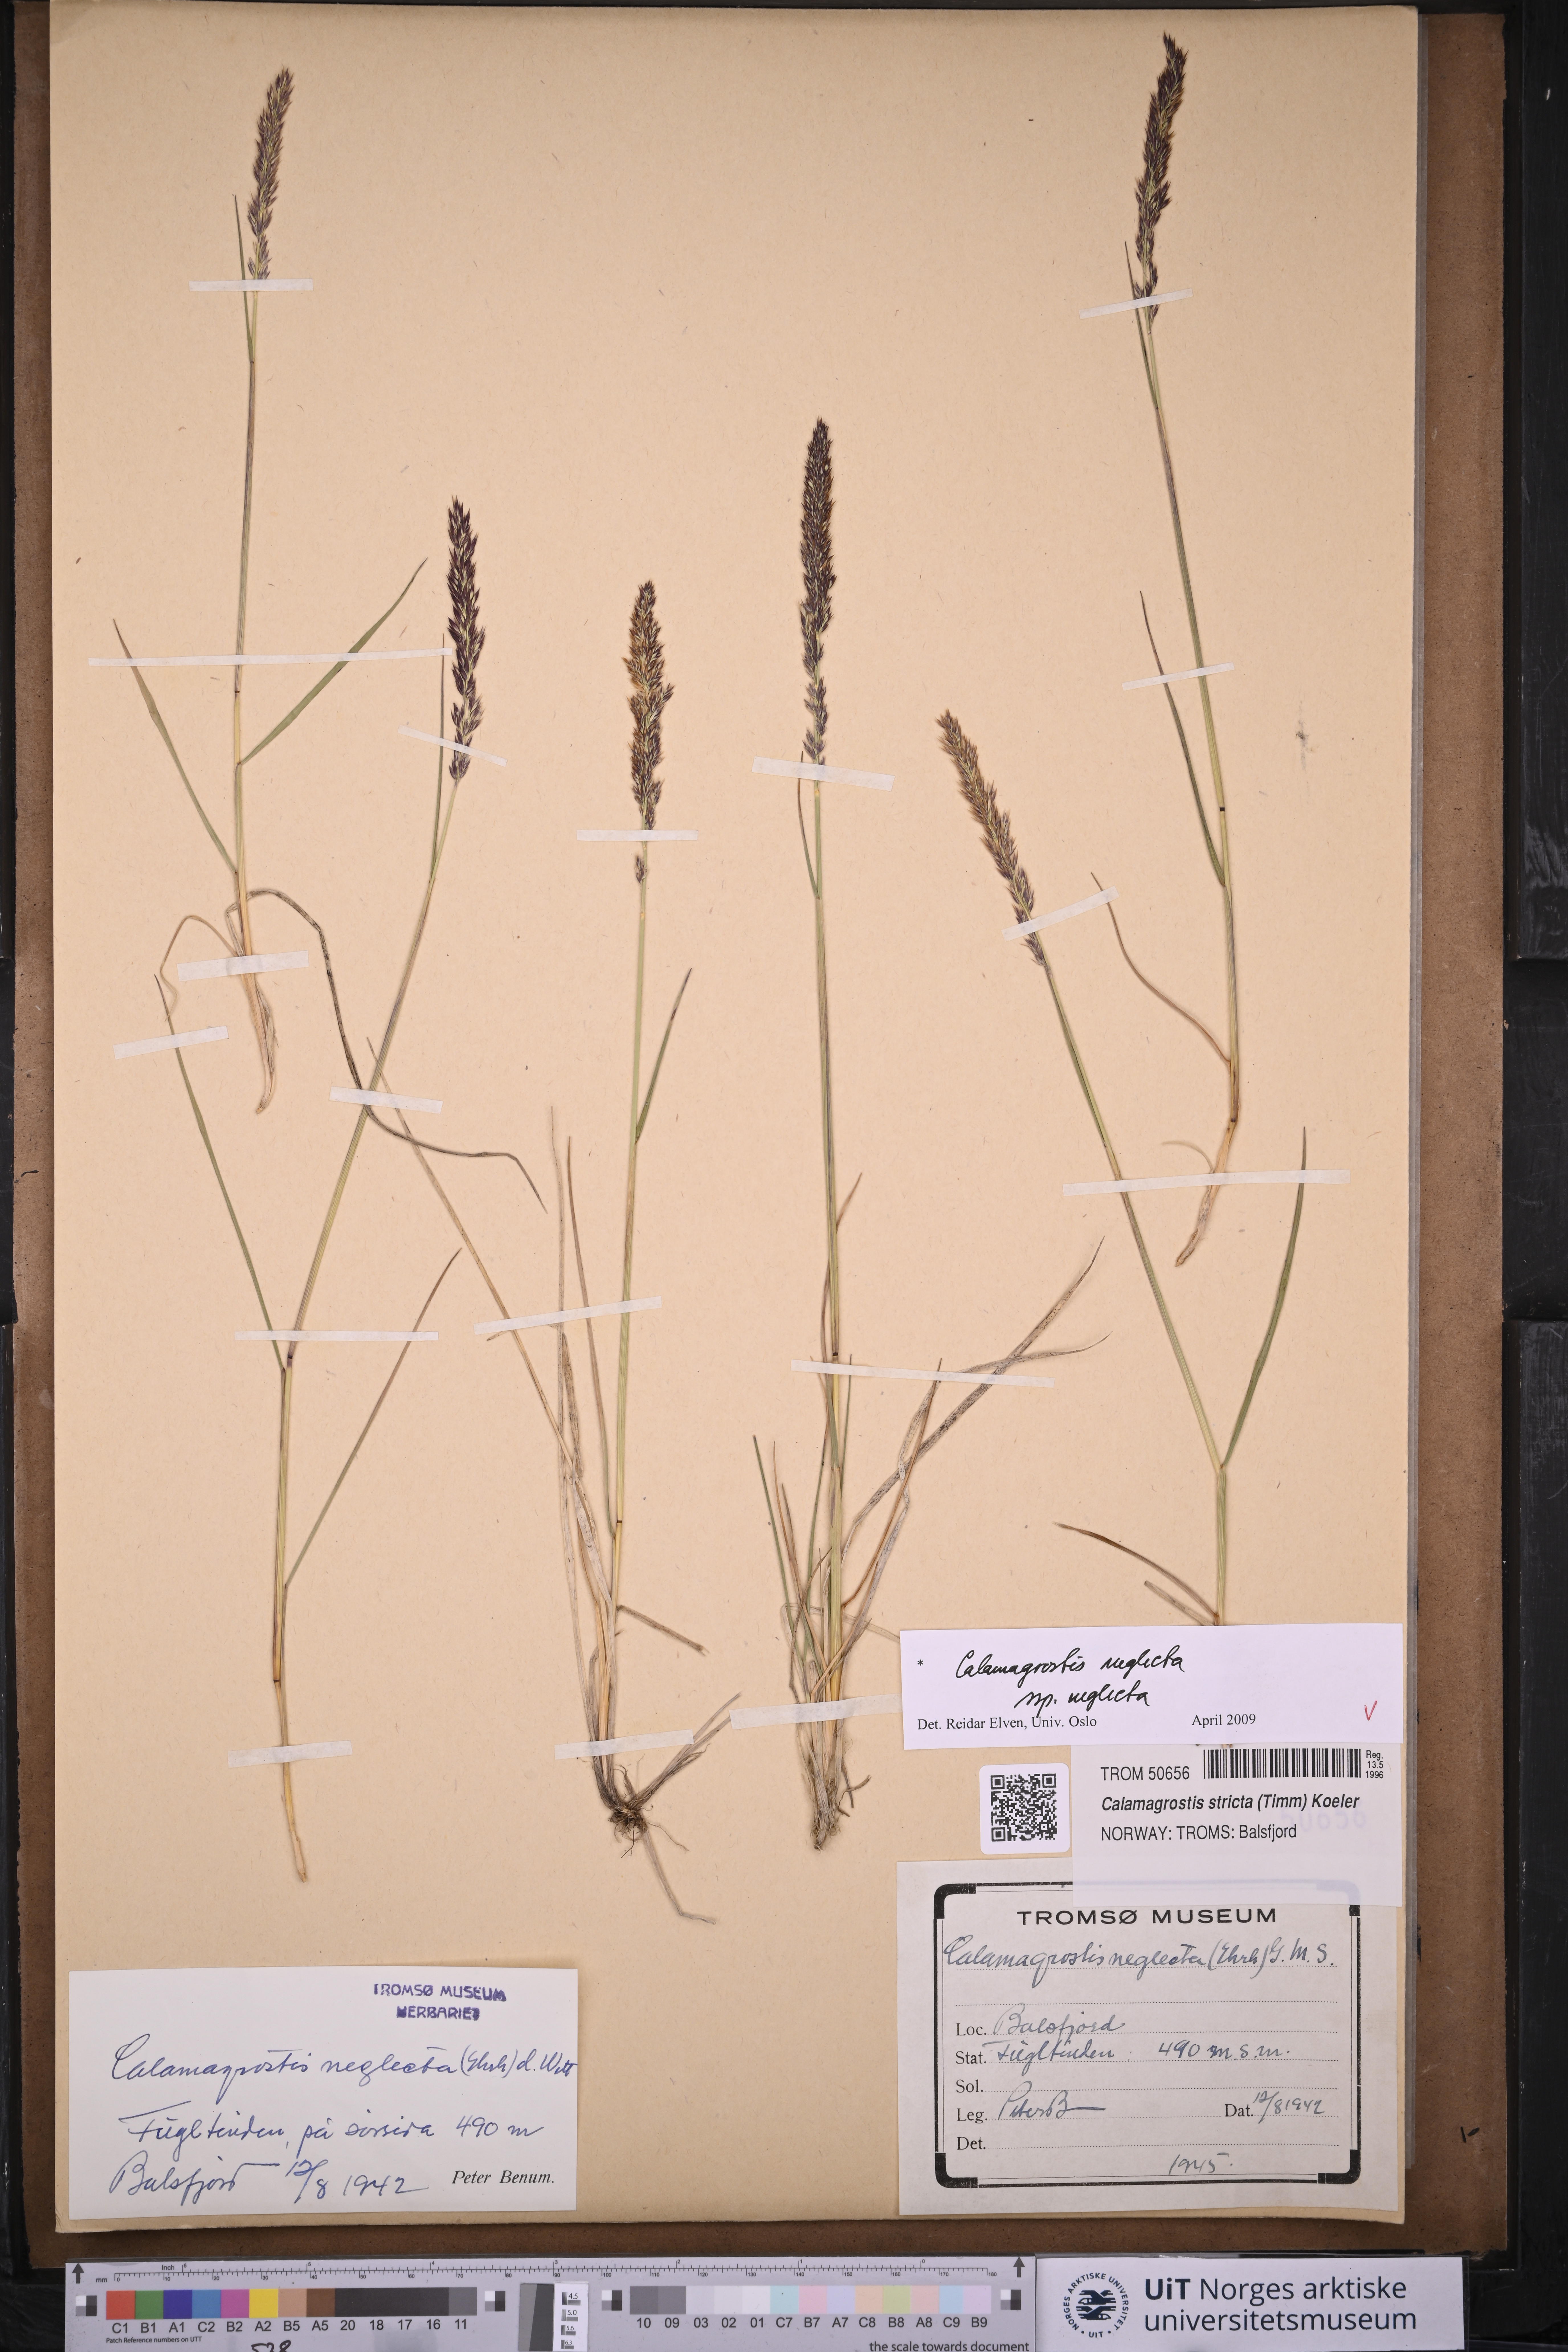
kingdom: Plantae
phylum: Tracheophyta
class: Liliopsida
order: Poales
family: Poaceae
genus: Achnatherum
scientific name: Achnatherum calamagrostis
